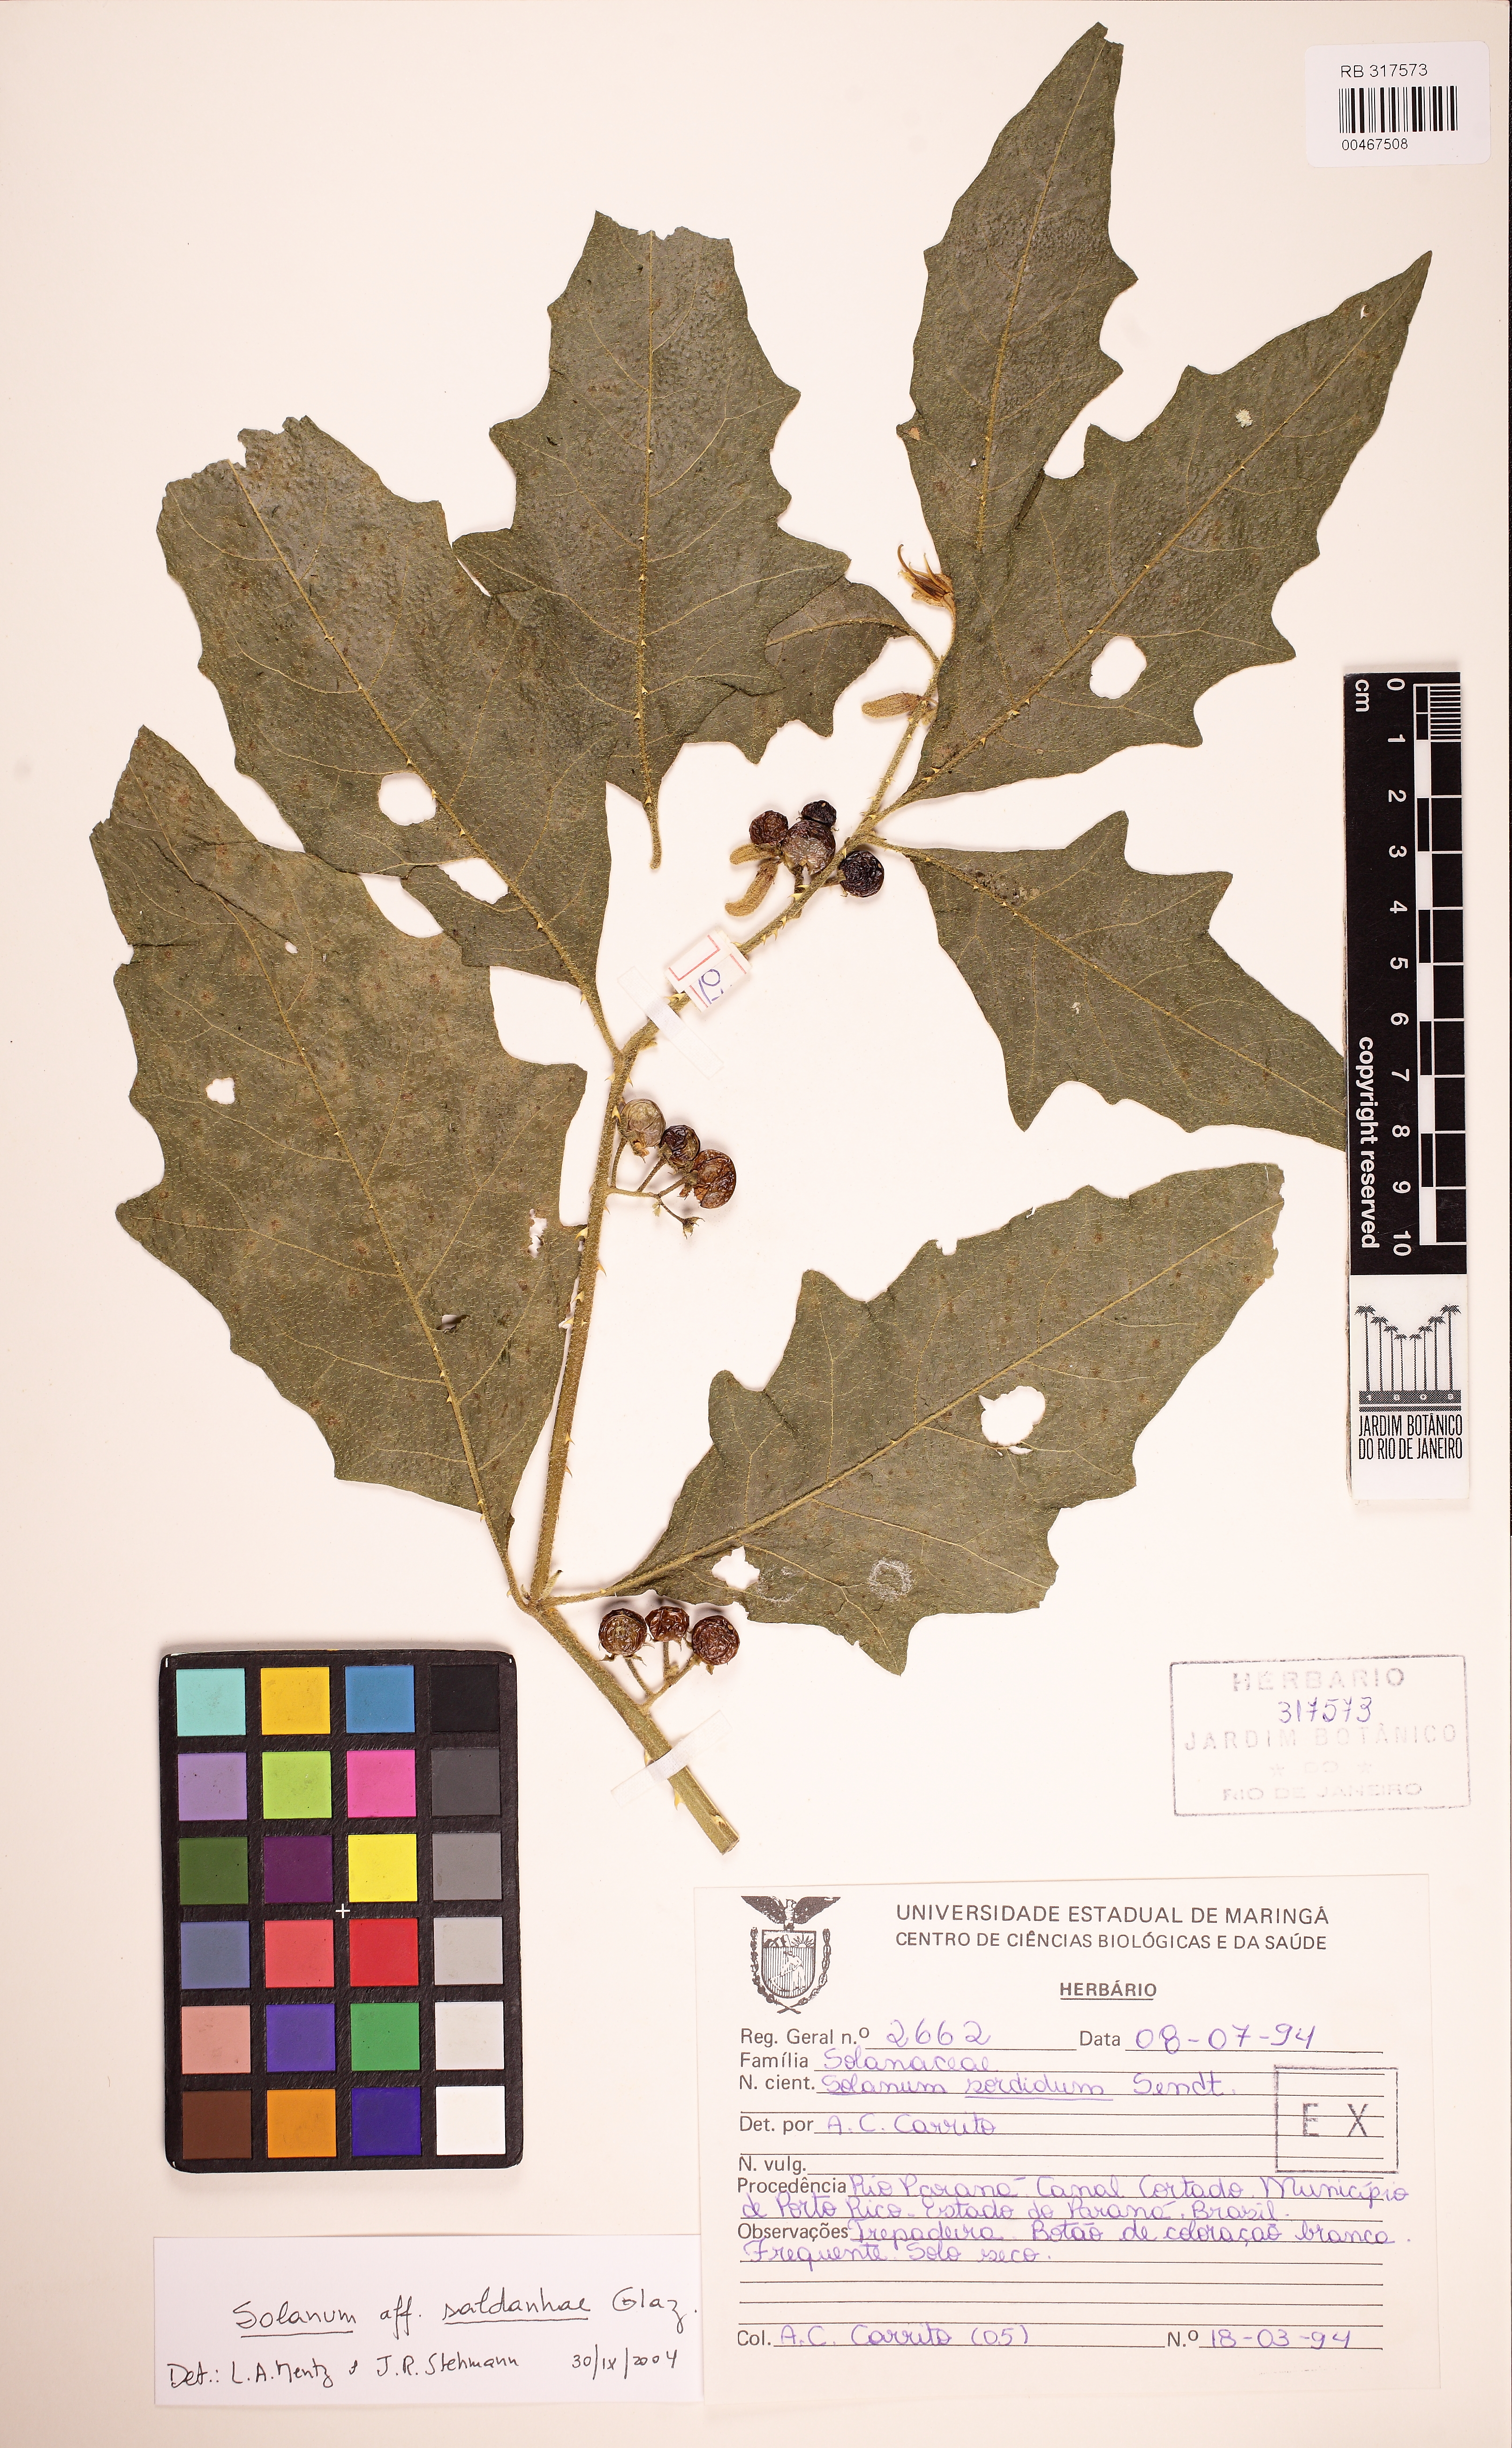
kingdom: Plantae
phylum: Tracheophyta
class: Magnoliopsida
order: Solanales
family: Solanaceae
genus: Solanum
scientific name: Solanum saldanhae
